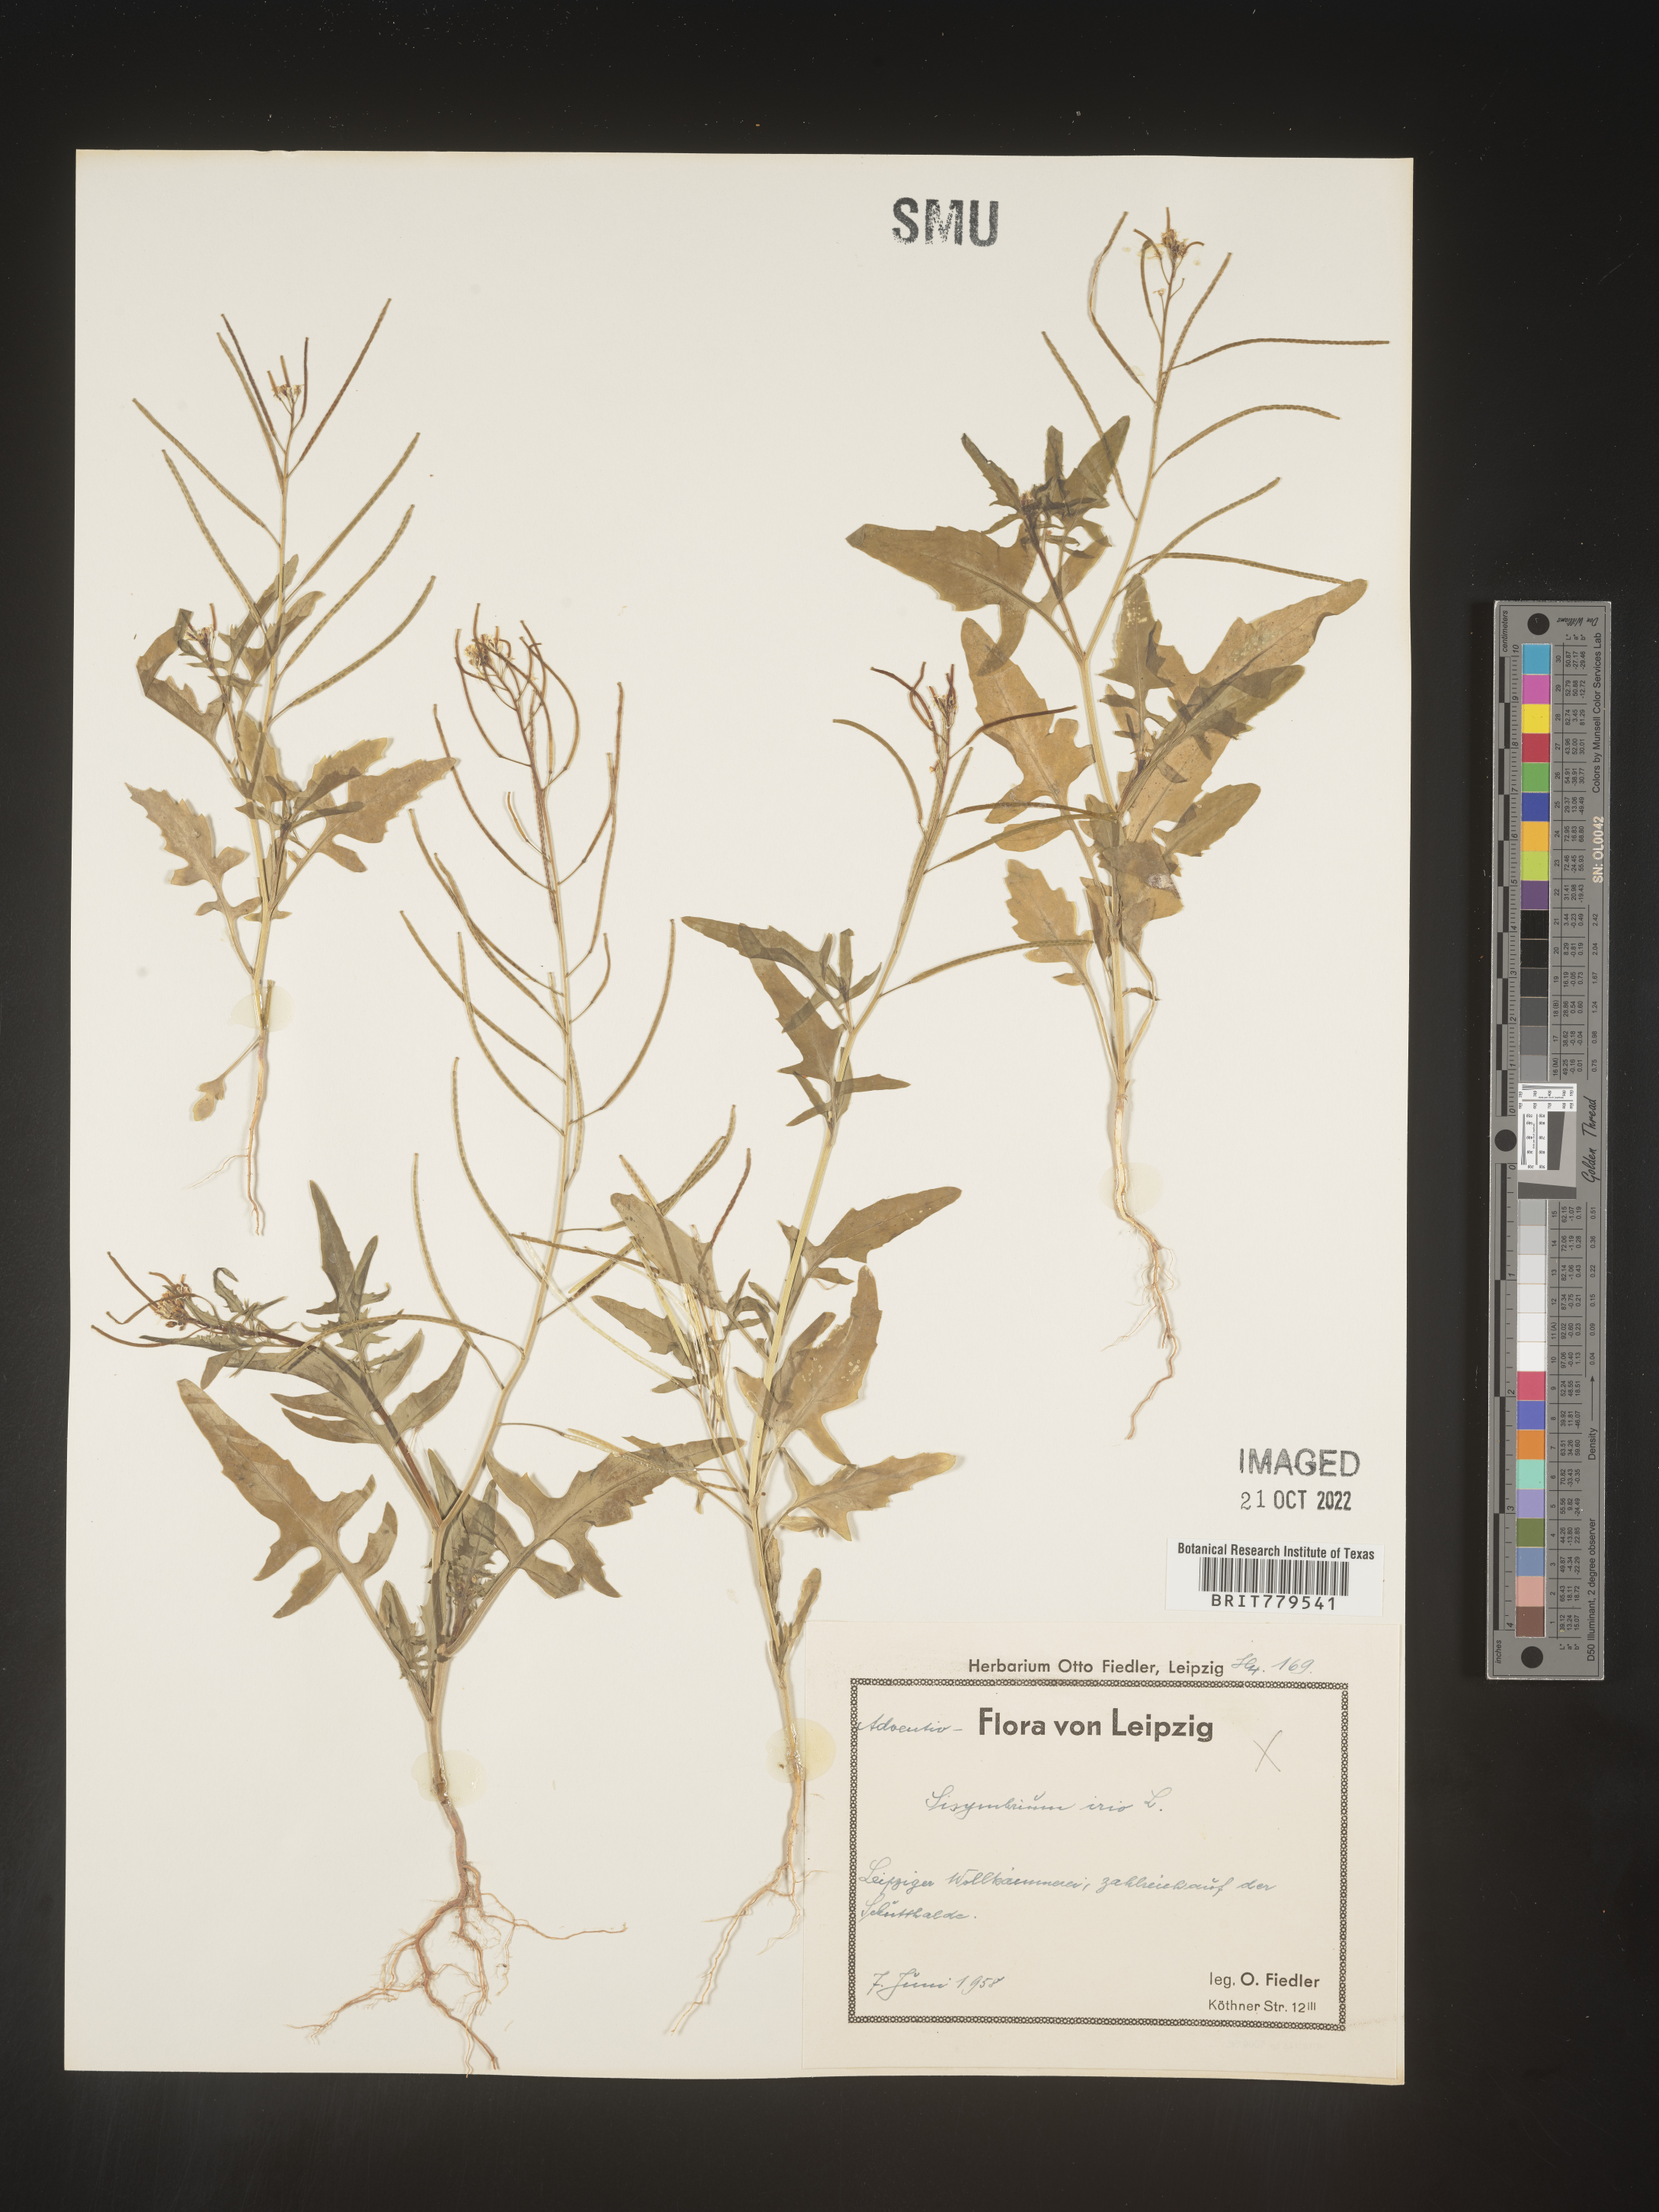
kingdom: Plantae
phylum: Tracheophyta
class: Magnoliopsida
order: Brassicales
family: Brassicaceae
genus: Sisymbrium
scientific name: Sisymbrium
